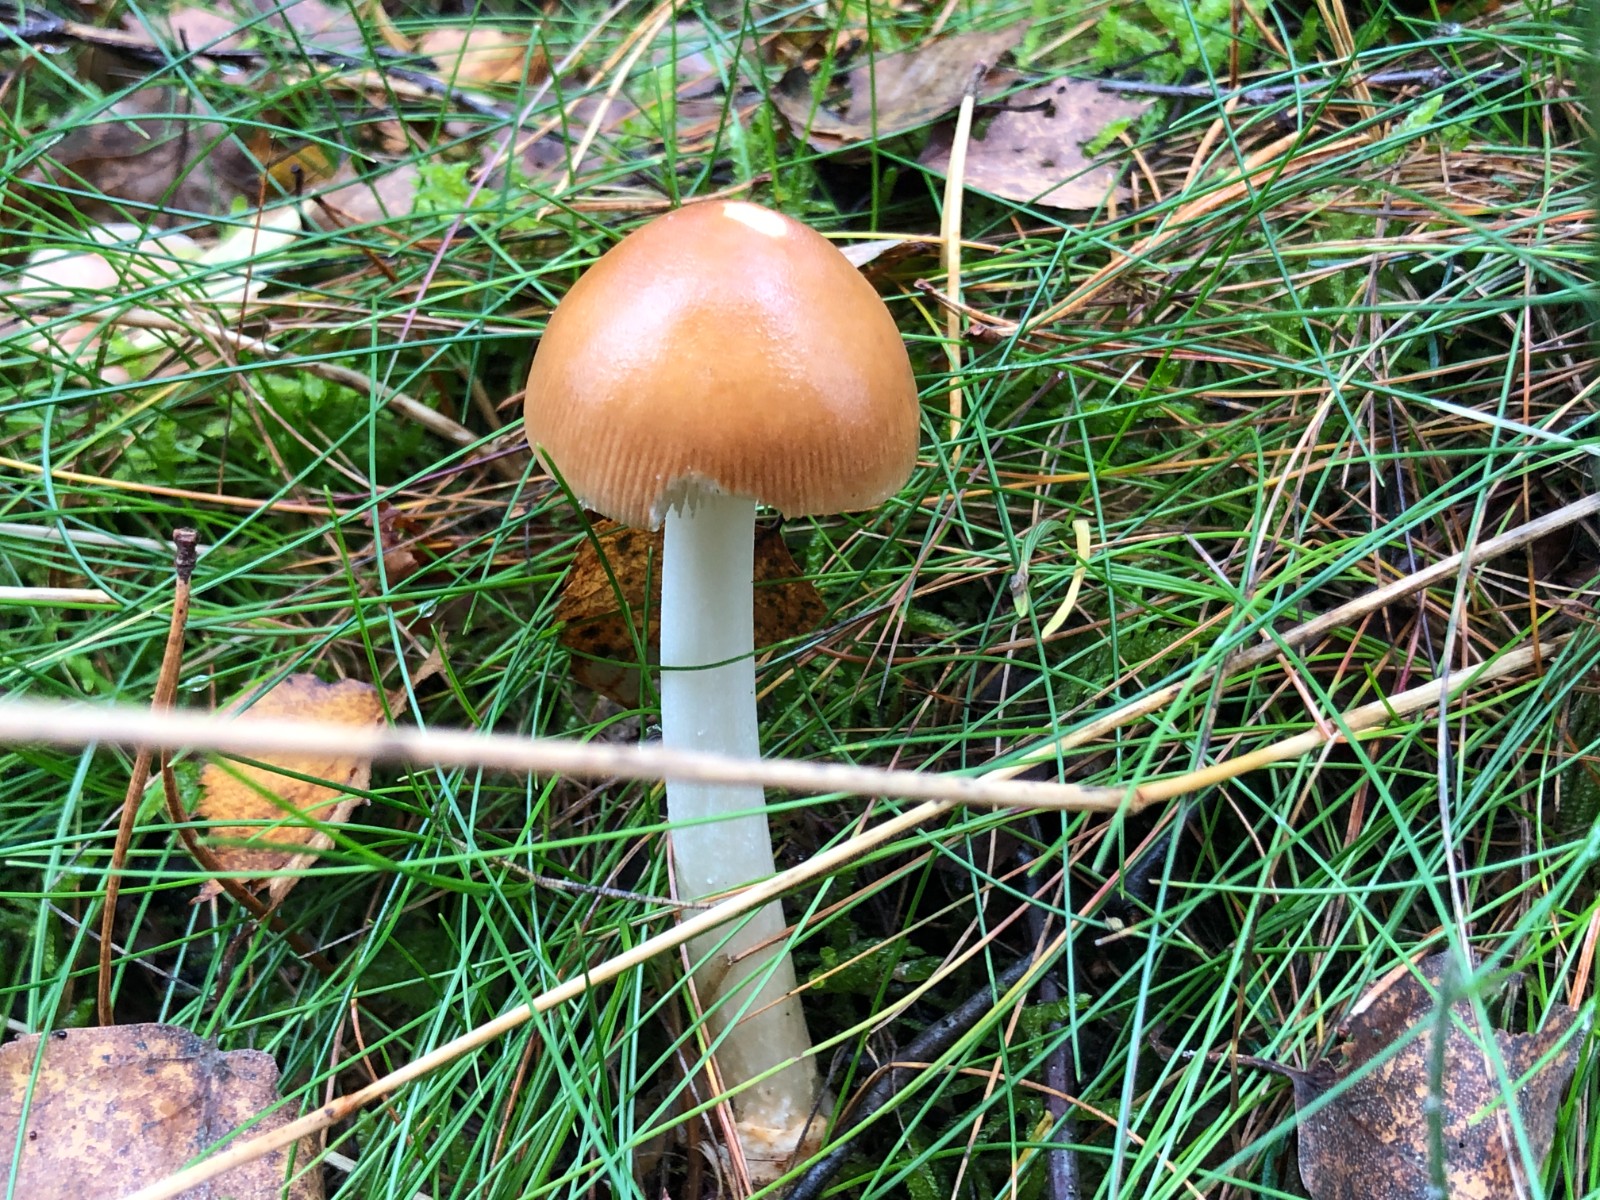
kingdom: Fungi
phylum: Basidiomycota
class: Agaricomycetes
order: Agaricales
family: Amanitaceae
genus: Amanita
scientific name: Amanita fulva
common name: brun kam-fluesvamp
